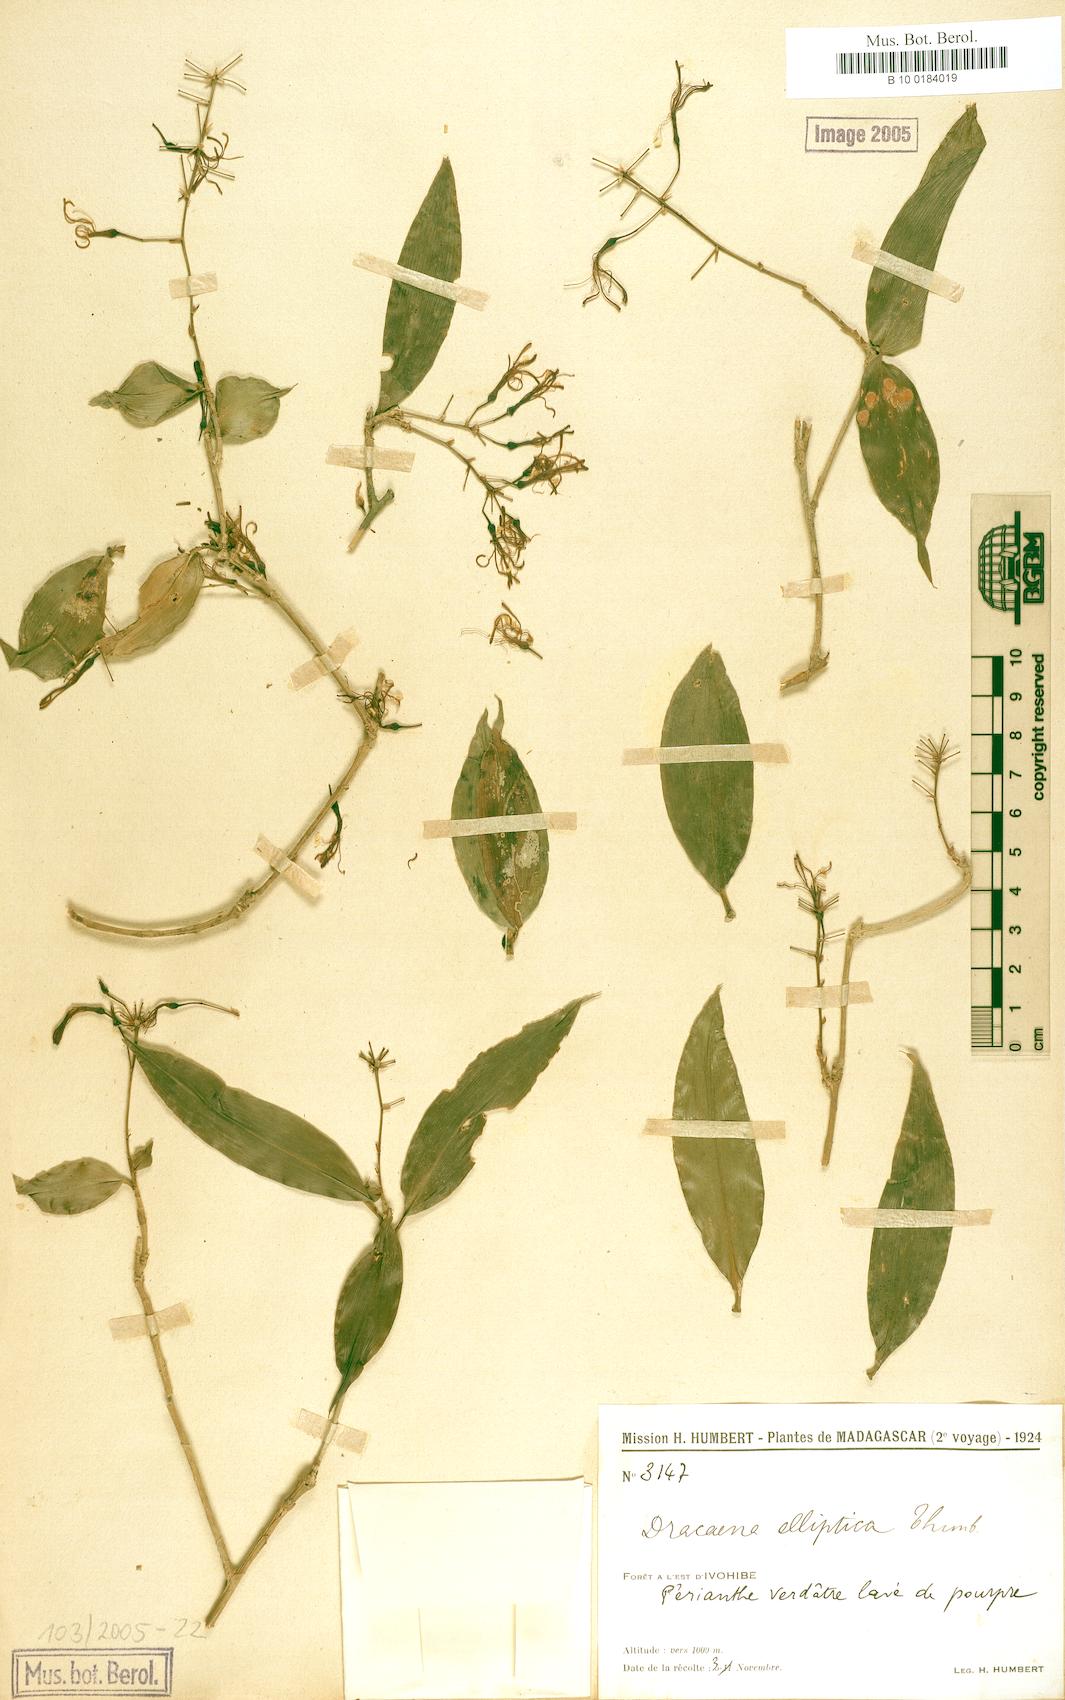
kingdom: Plantae
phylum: Tracheophyta
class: Liliopsida
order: Asparagales
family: Asparagaceae
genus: Dracaena
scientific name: Dracaena conferta
